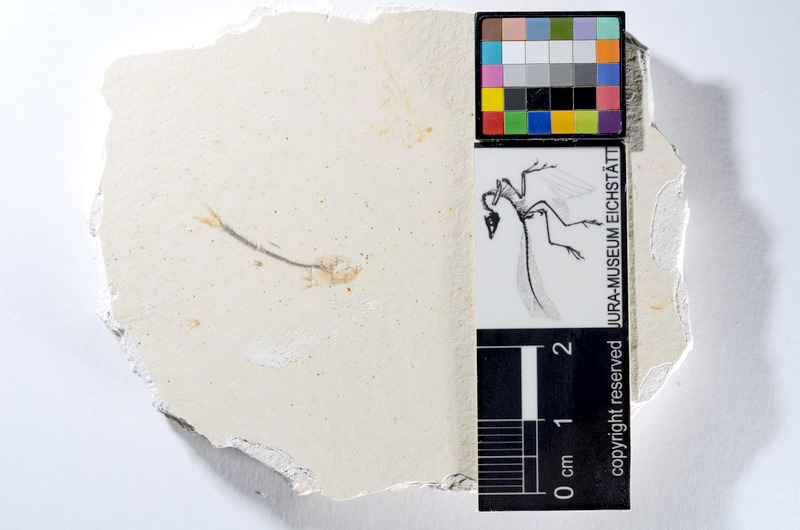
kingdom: Animalia
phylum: Chordata
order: Salmoniformes
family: Orthogonikleithridae
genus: Orthogonikleithrus
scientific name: Orthogonikleithrus hoelli
